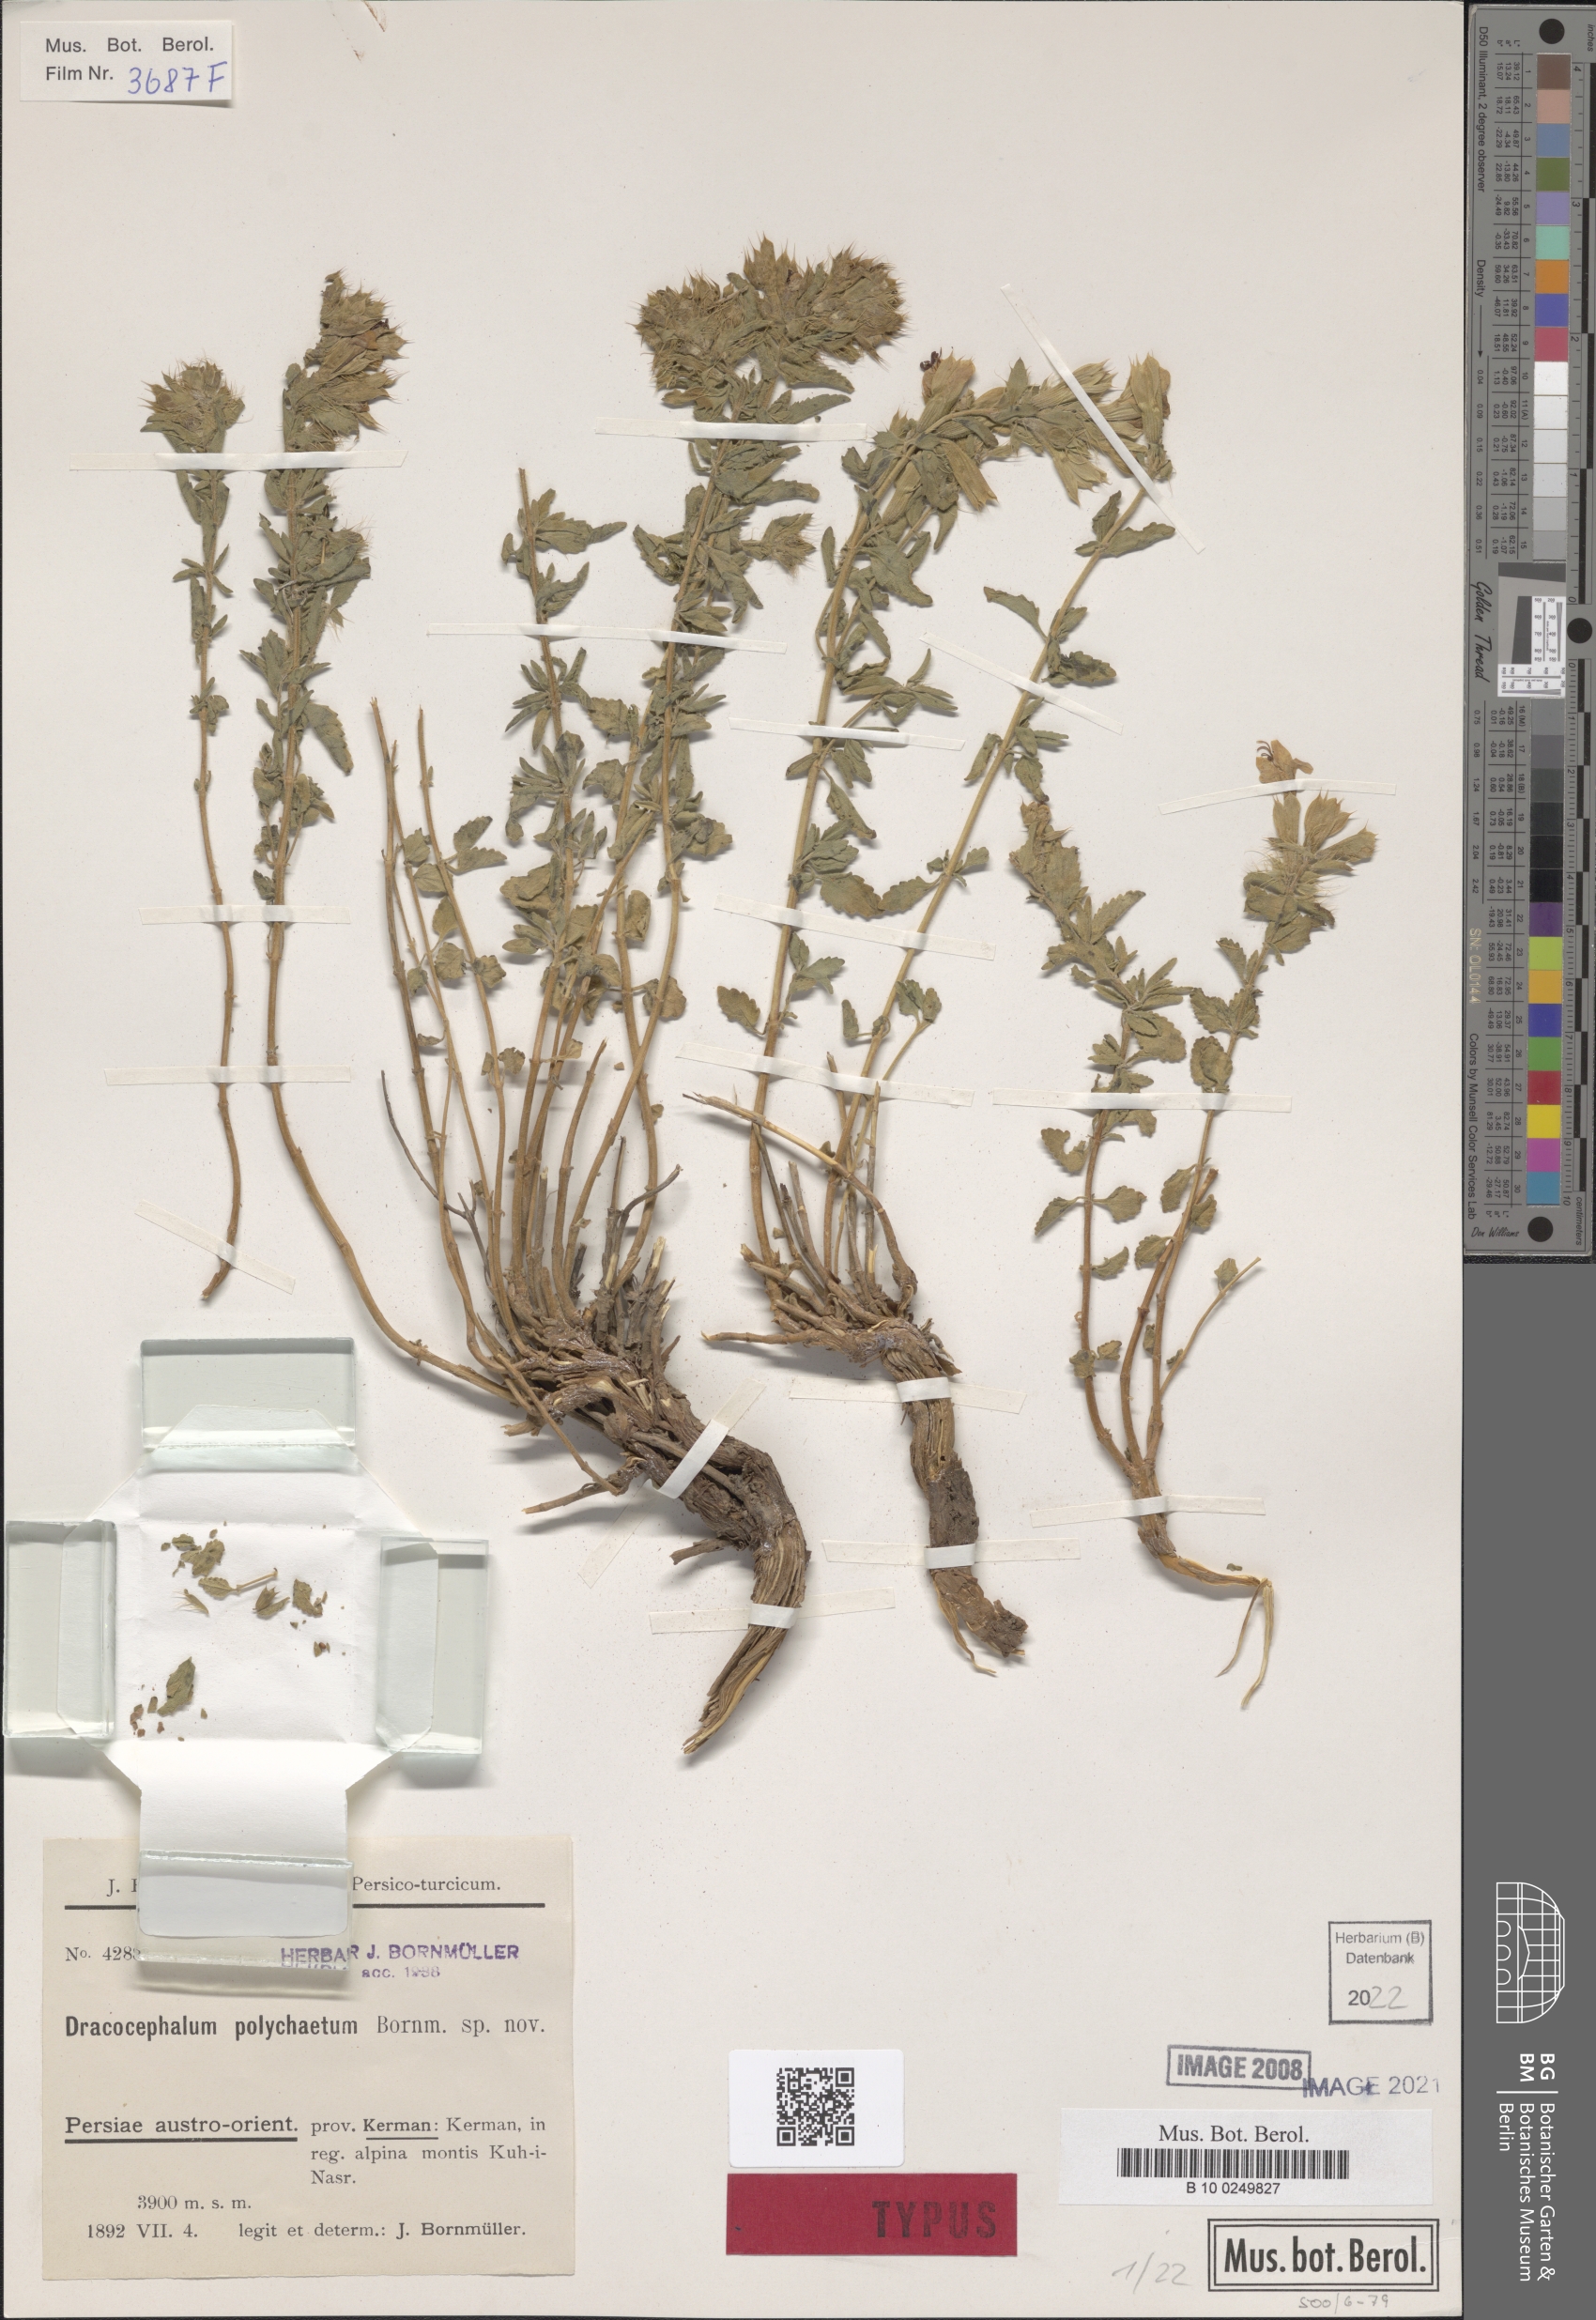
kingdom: Plantae
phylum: Tracheophyta
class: Magnoliopsida
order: Lamiales
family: Lamiaceae
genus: Dracocephalum
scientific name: Dracocephalum polychaetum
